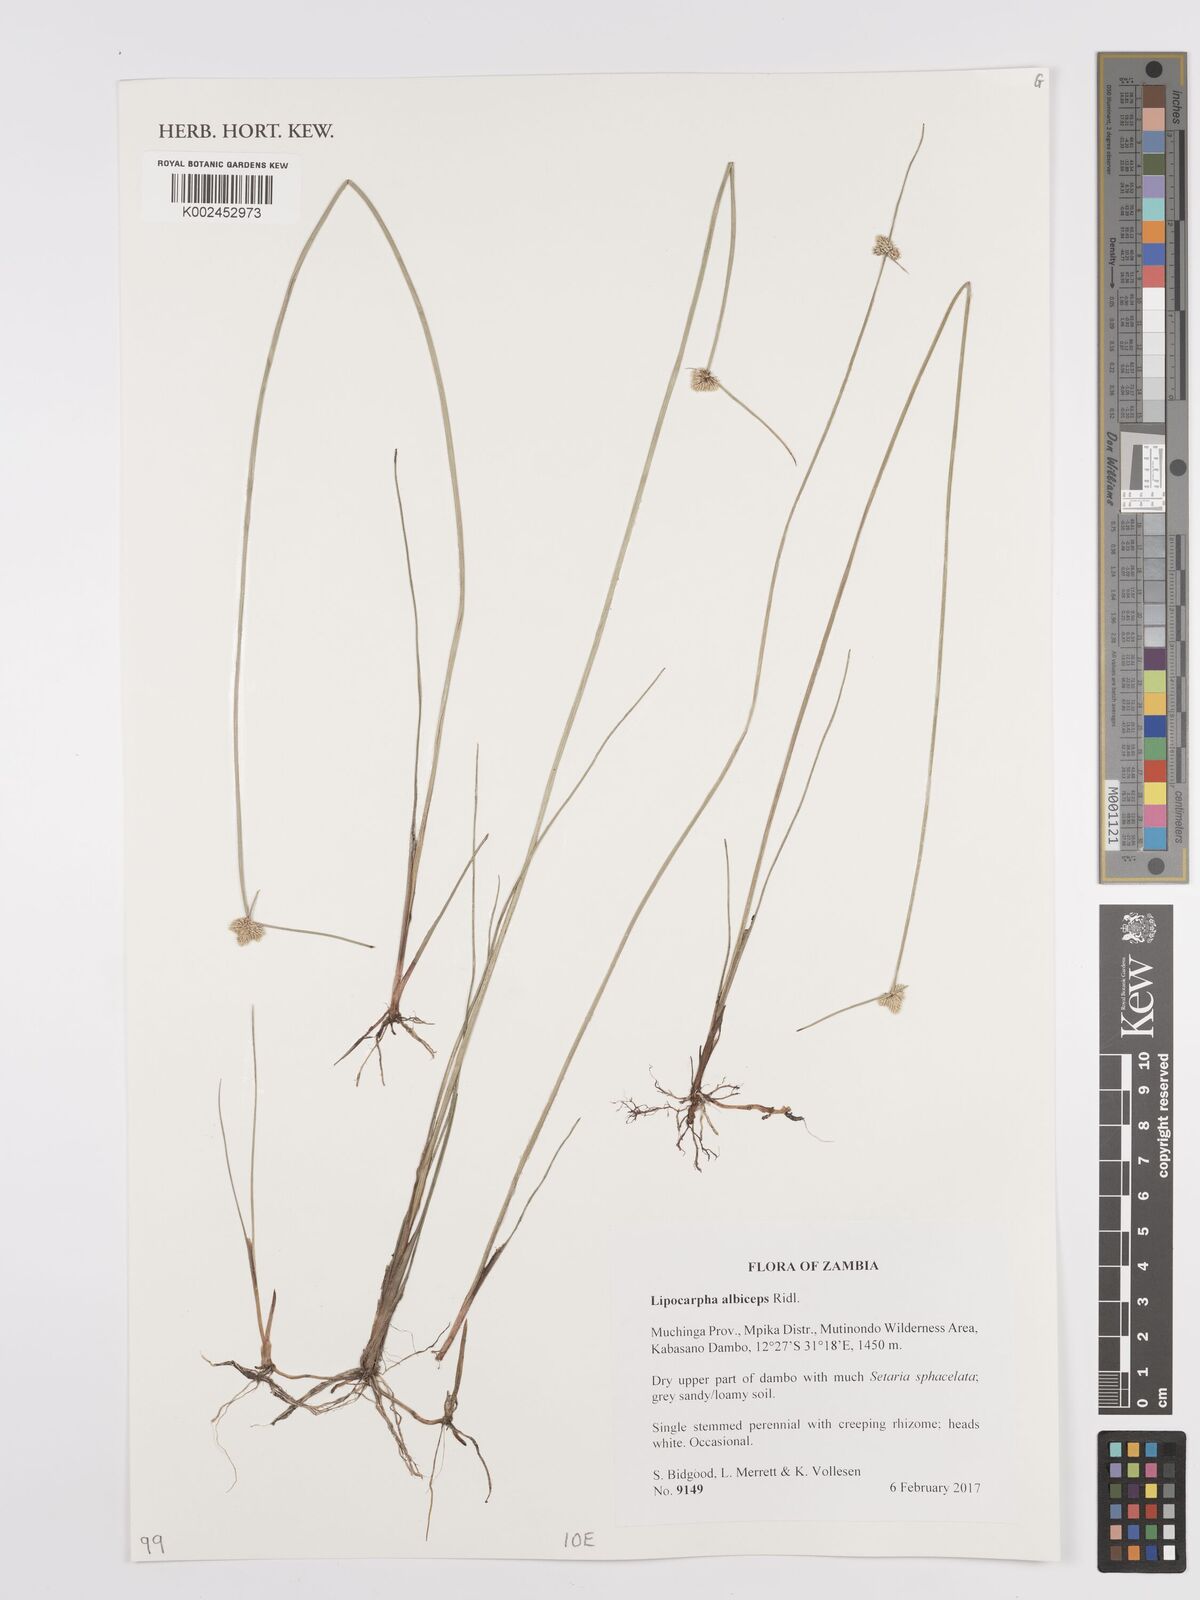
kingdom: Plantae
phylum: Tracheophyta
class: Liliopsida
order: Poales
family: Cyperaceae
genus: Cyperus
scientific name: Cyperus albiceps
